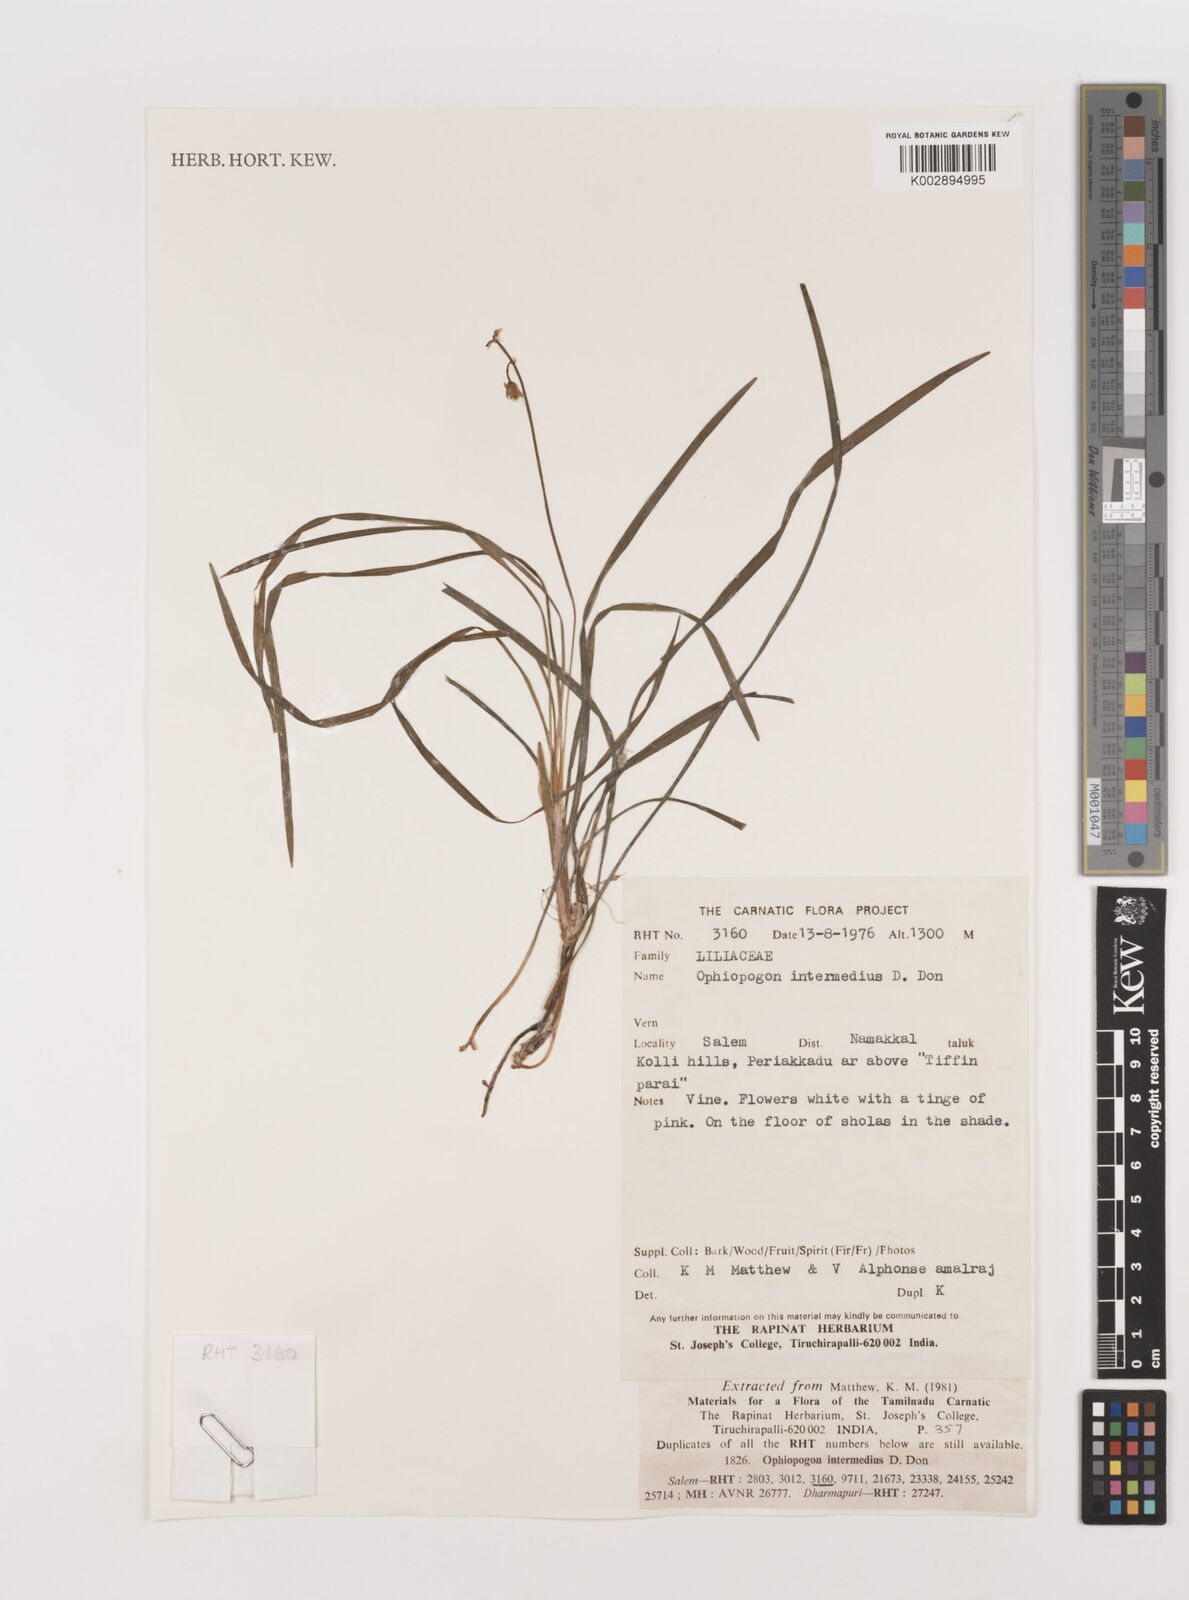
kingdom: Plantae
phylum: Tracheophyta
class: Liliopsida
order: Asparagales
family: Asparagaceae
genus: Ophiopogon
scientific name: Ophiopogon intermedius
